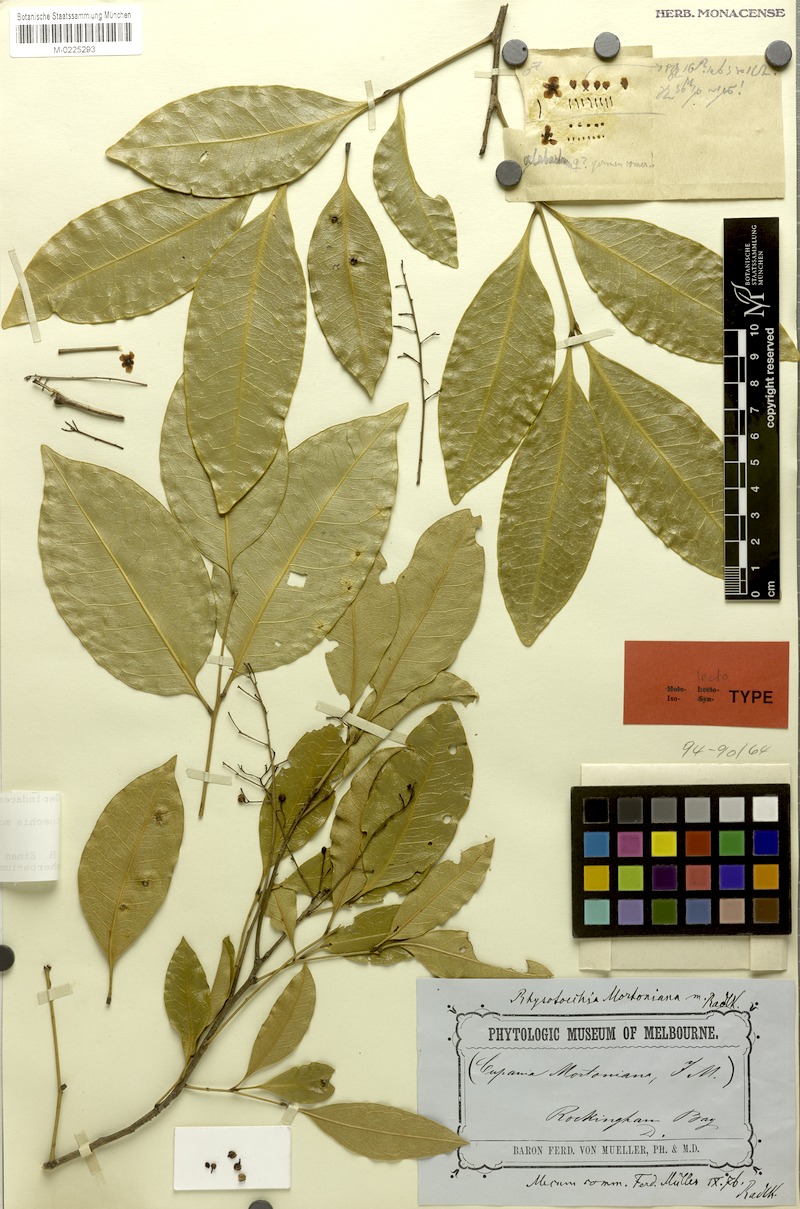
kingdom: Plantae
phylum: Tracheophyta
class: Magnoliopsida
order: Sapindales
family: Sapindaceae
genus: Rhysotoechia
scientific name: Rhysotoechia mortoniana
